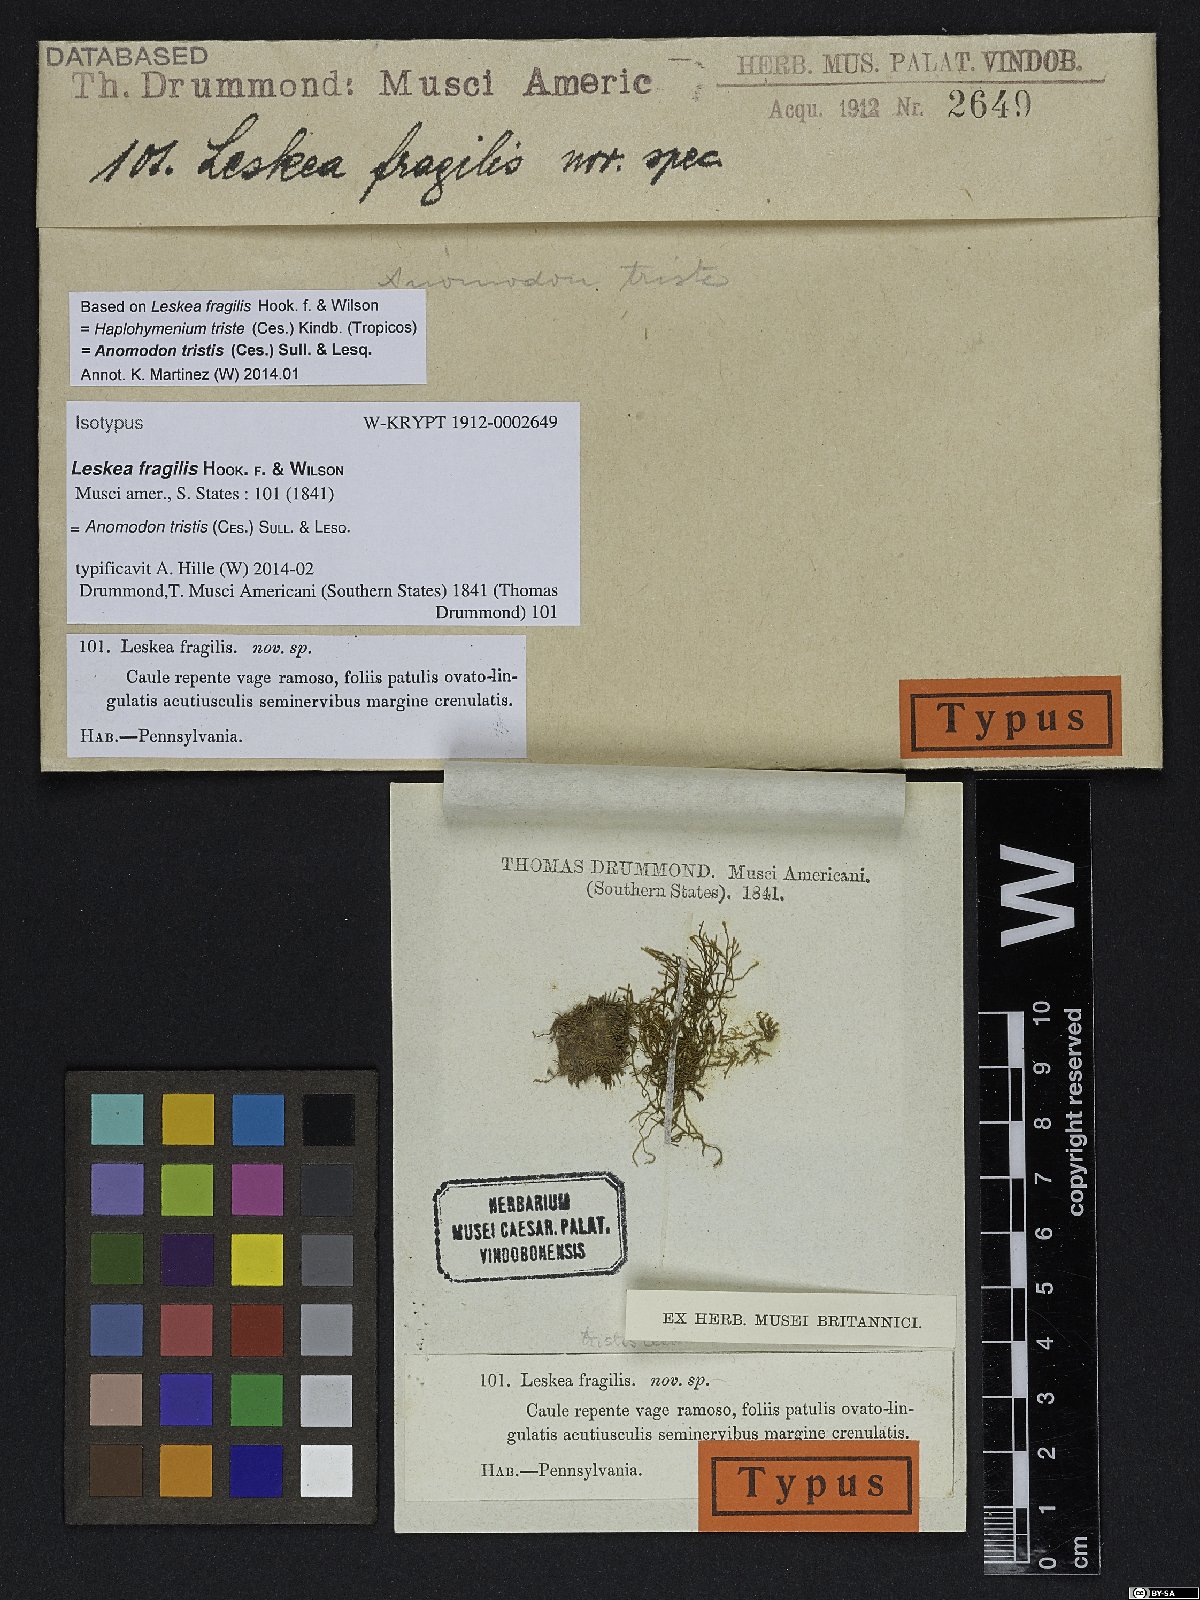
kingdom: Plantae
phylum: Bryophyta
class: Bryopsida
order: Hypnales
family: Anomodontaceae
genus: Haplohymenium
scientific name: Haplohymenium triste
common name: Fragile anomodon
